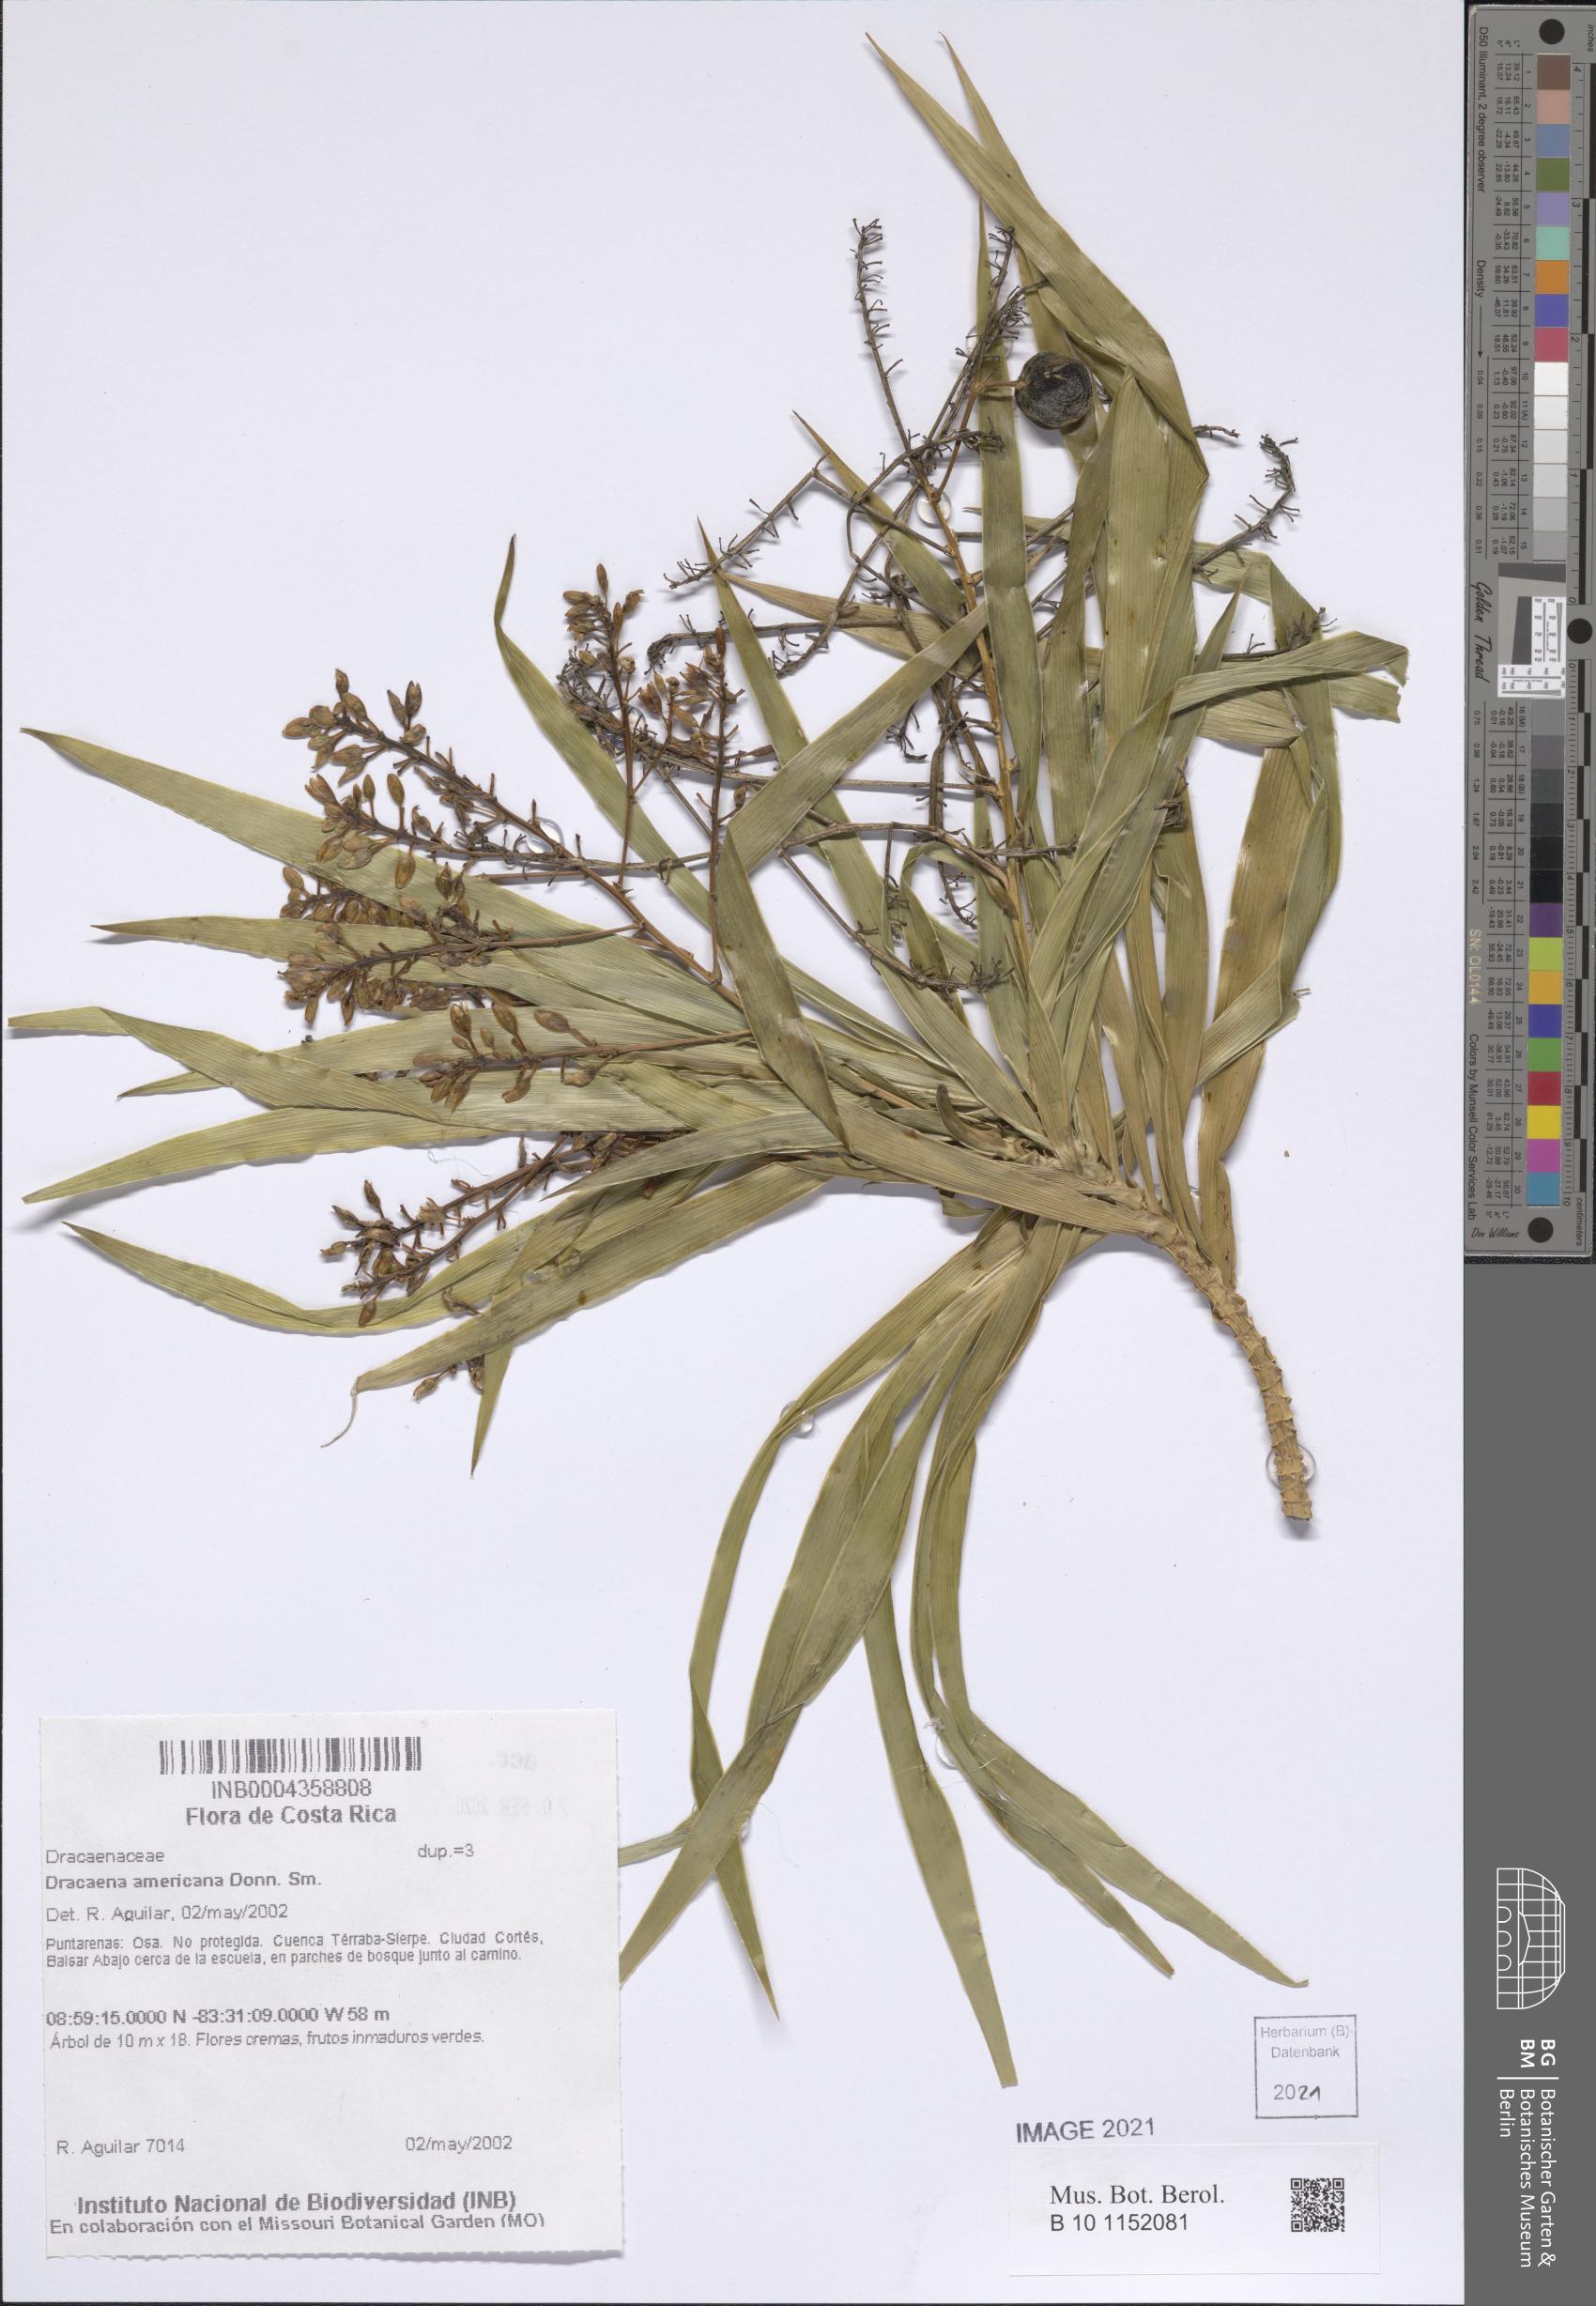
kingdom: Plantae
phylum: Tracheophyta
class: Liliopsida
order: Asparagales
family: Asparagaceae
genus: Dracaena
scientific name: Dracaena ghiesbreghtii
